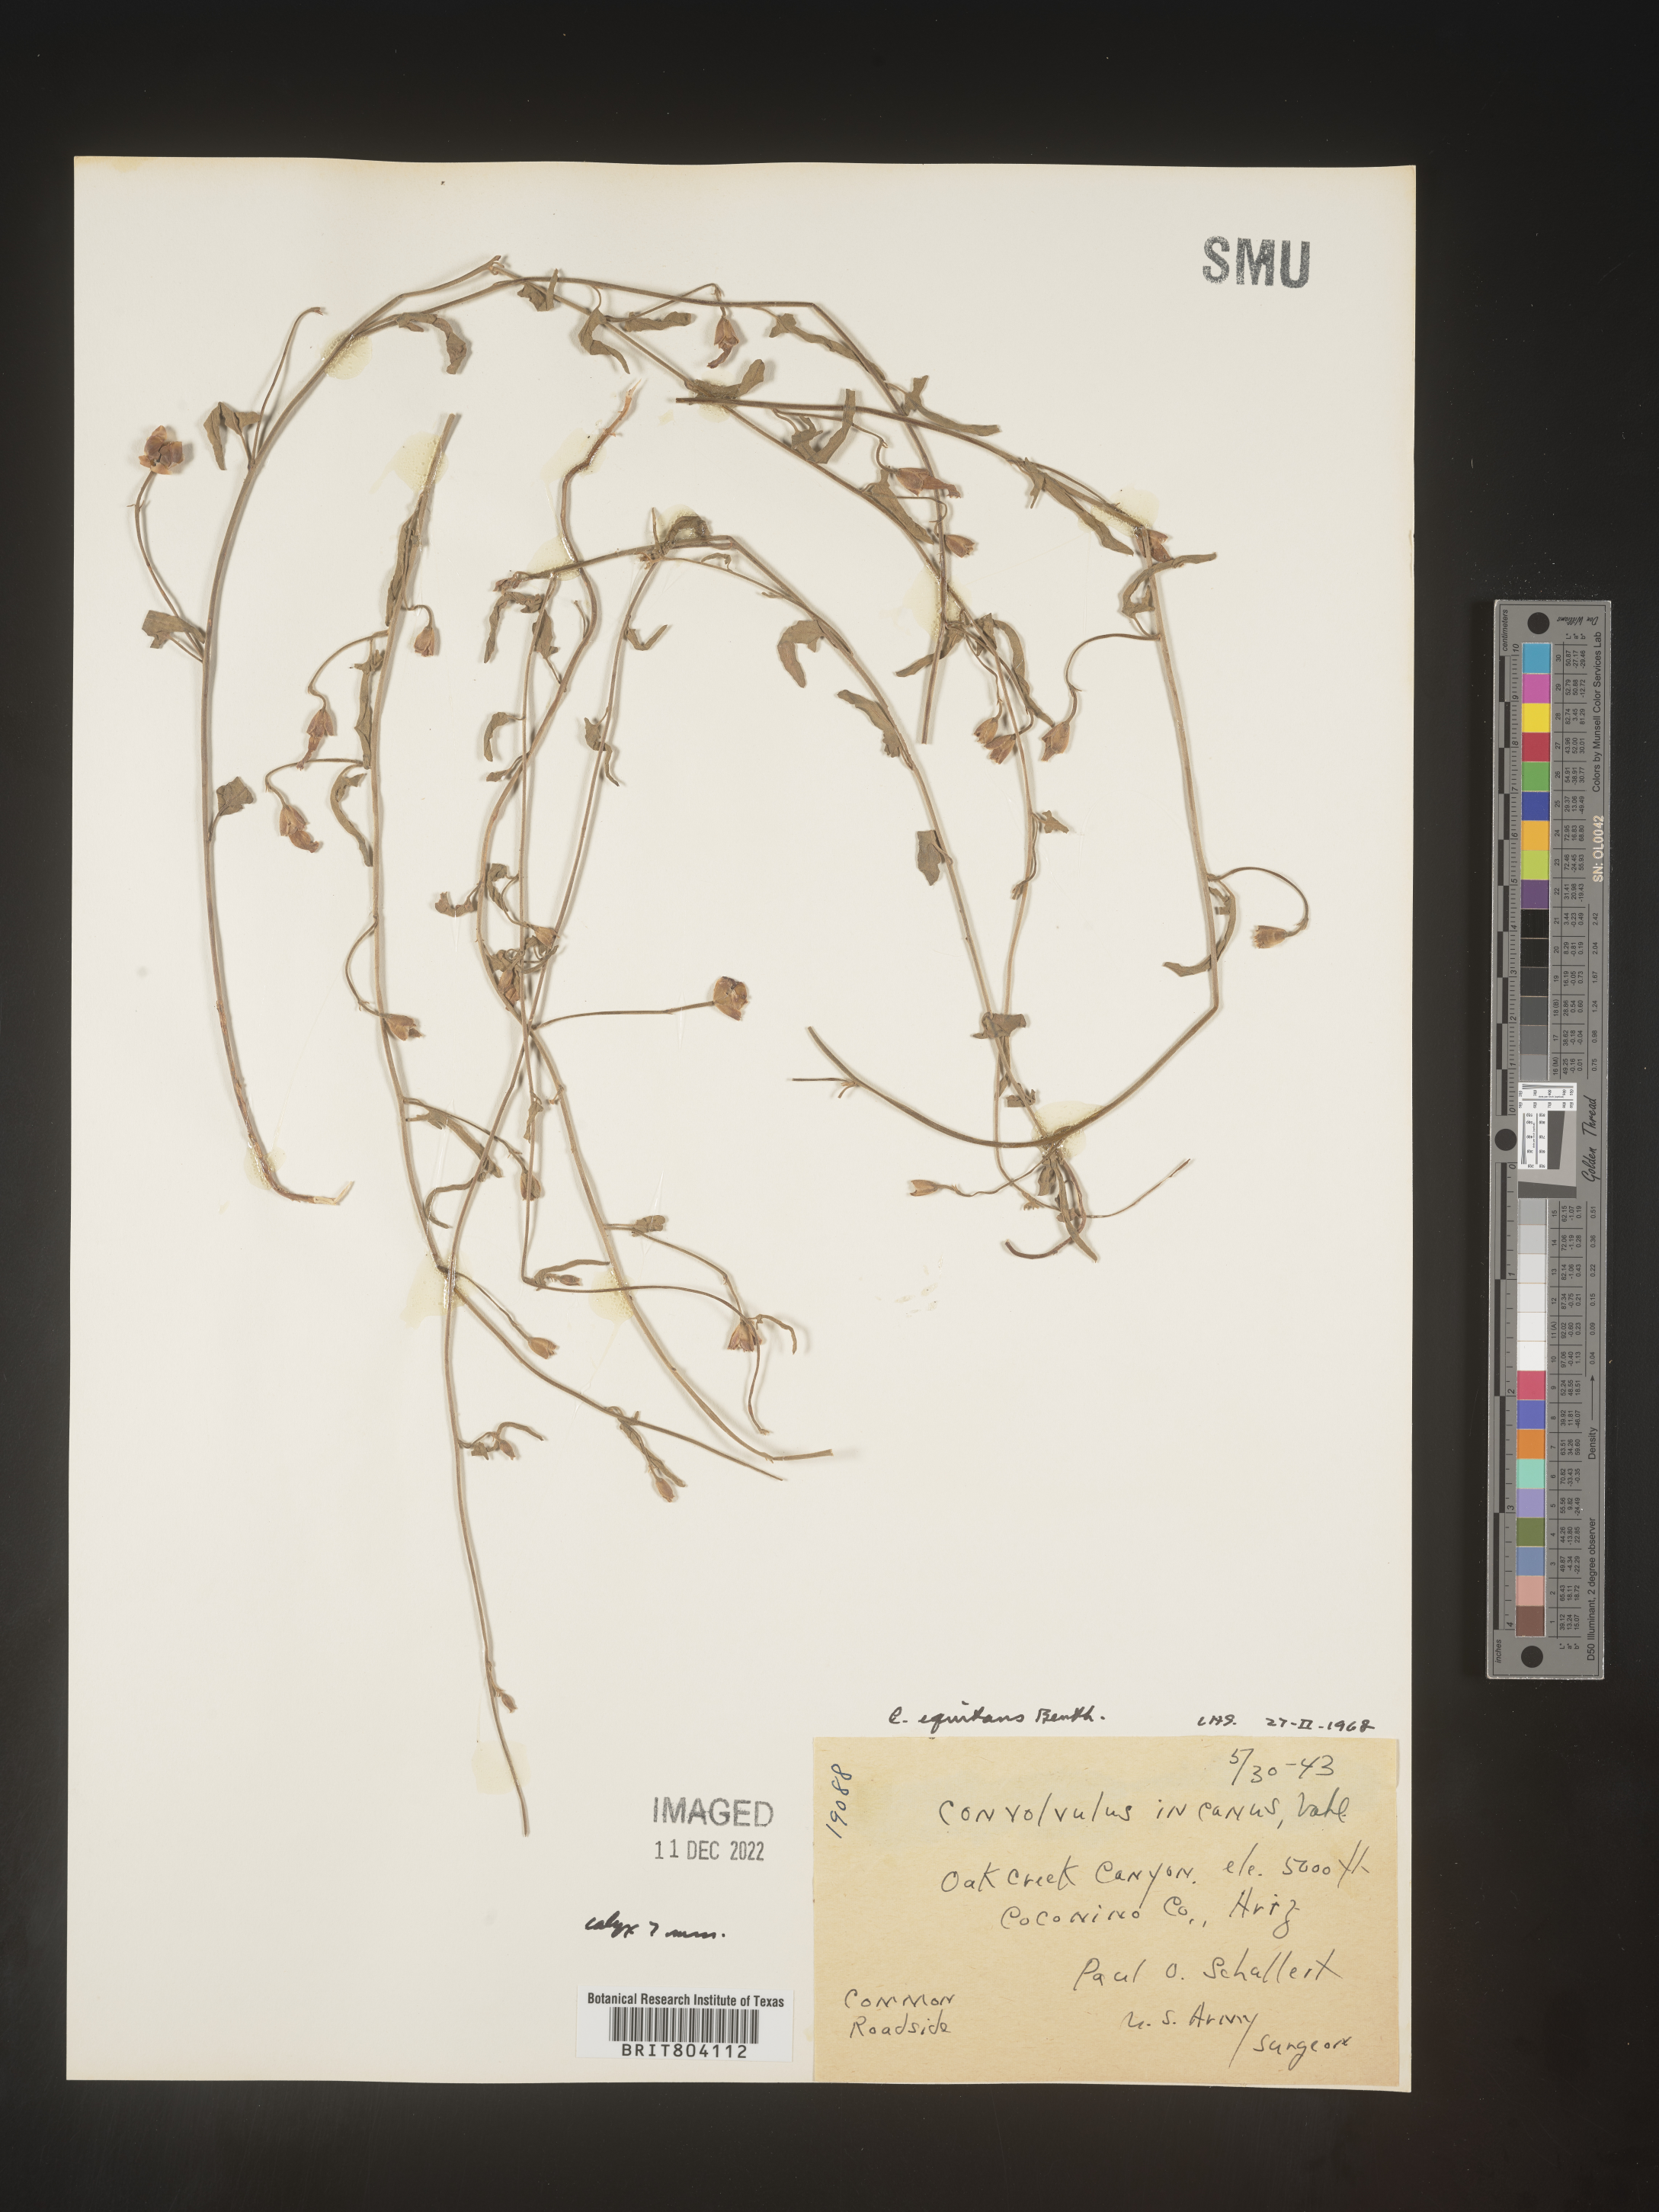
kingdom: Plantae
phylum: Tracheophyta
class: Magnoliopsida
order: Solanales
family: Convolvulaceae
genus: Convolvulus
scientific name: Convolvulus equitans
